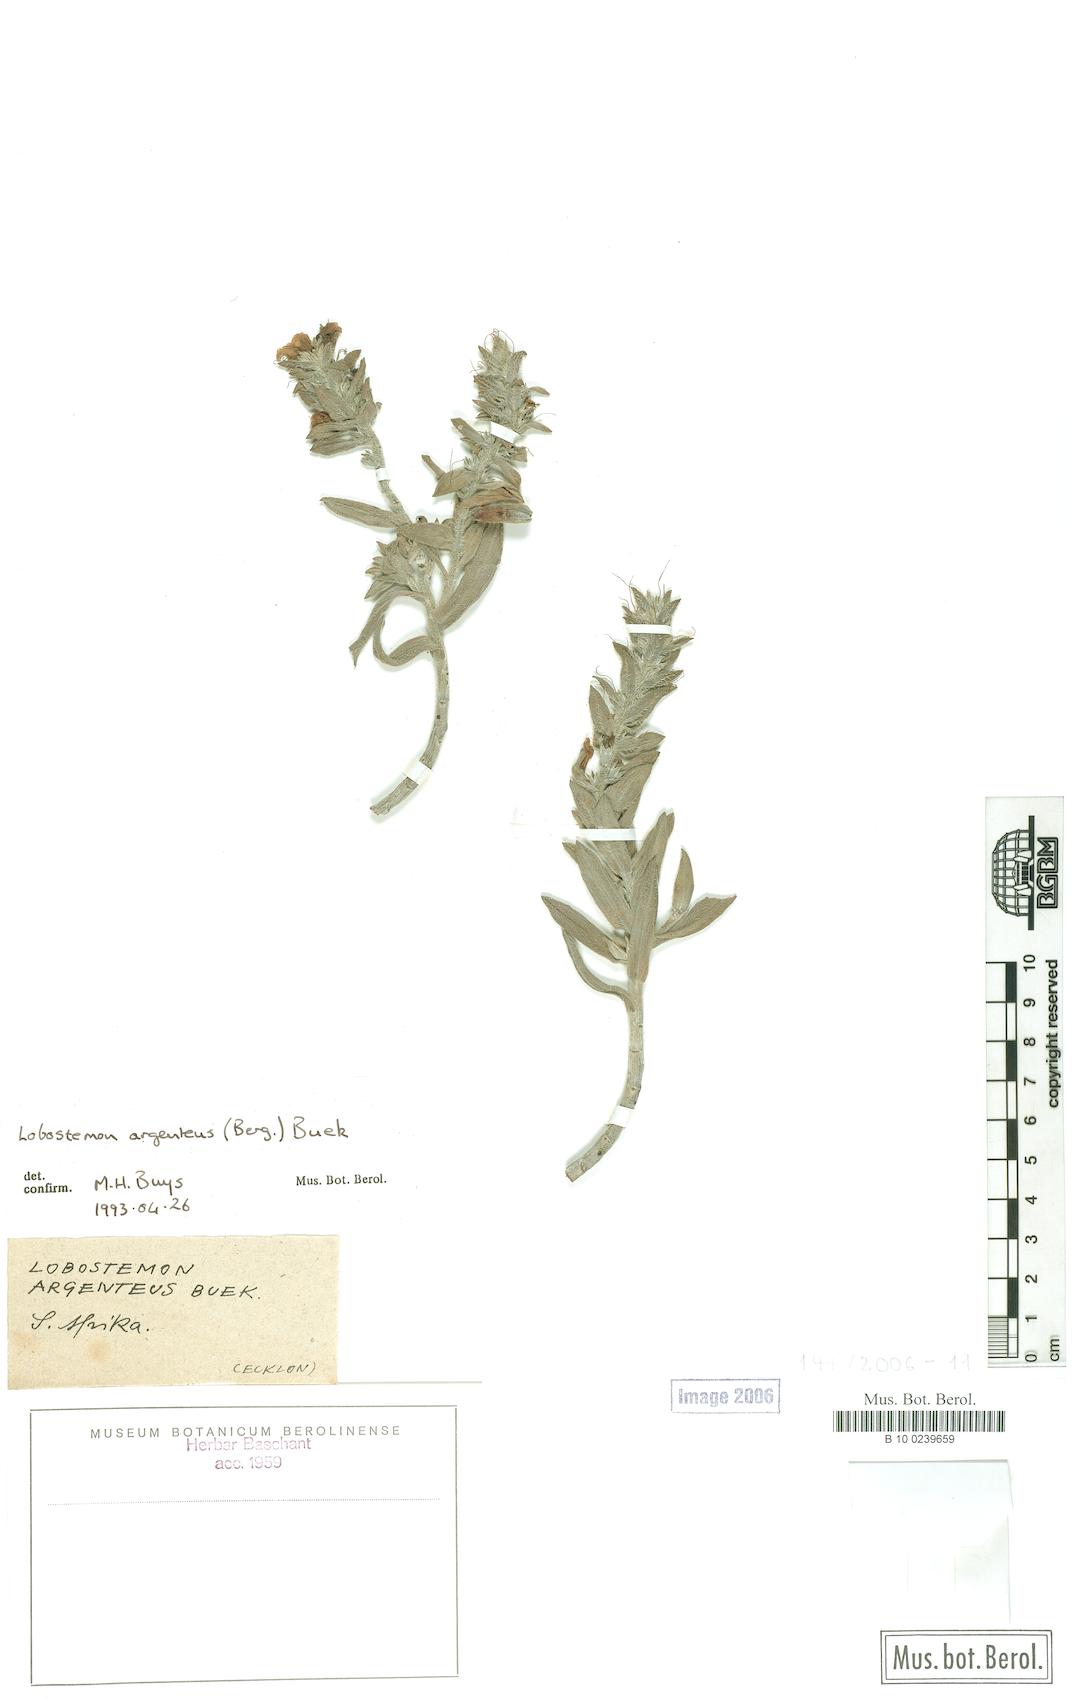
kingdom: Plantae
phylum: Tracheophyta
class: Magnoliopsida
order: Boraginales
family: Boraginaceae
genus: Lobostemon
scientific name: Lobostemon argenteus
